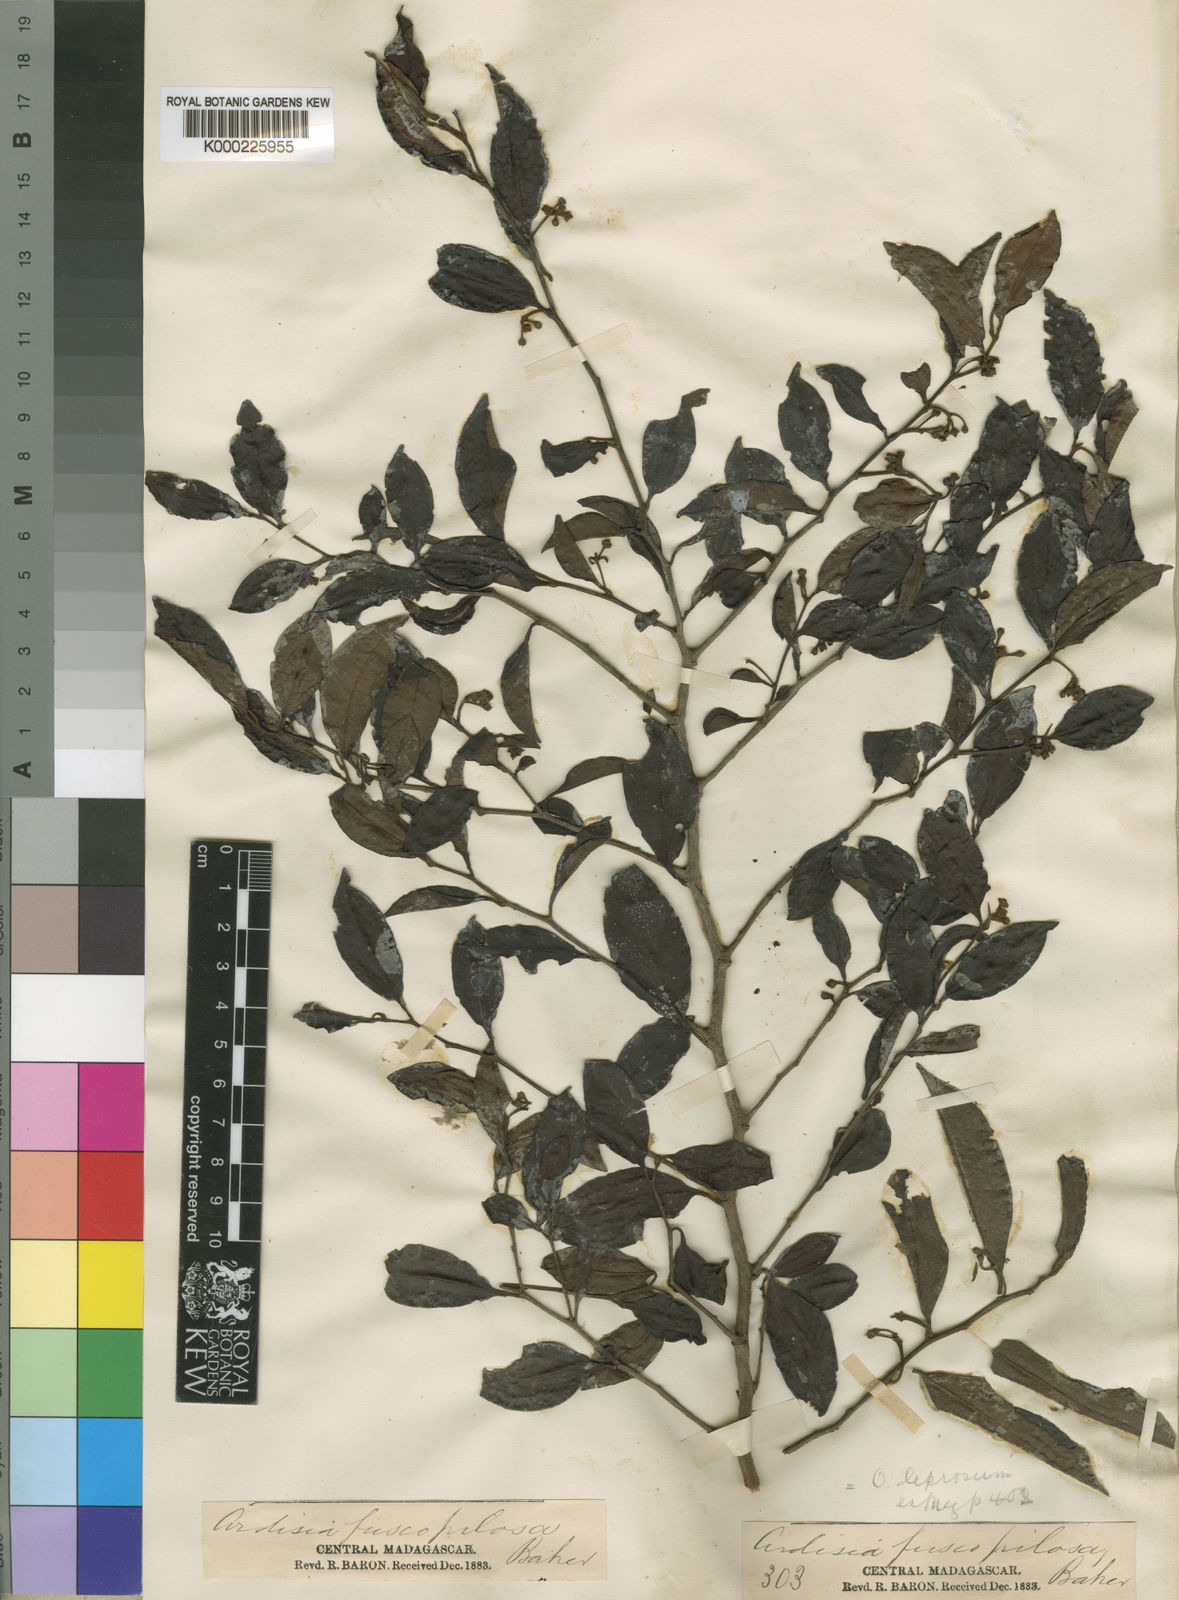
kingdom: Plantae
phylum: Tracheophyta
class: Magnoliopsida
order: Ericales
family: Primulaceae
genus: Oncostemum
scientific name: Oncostemum leprosum
